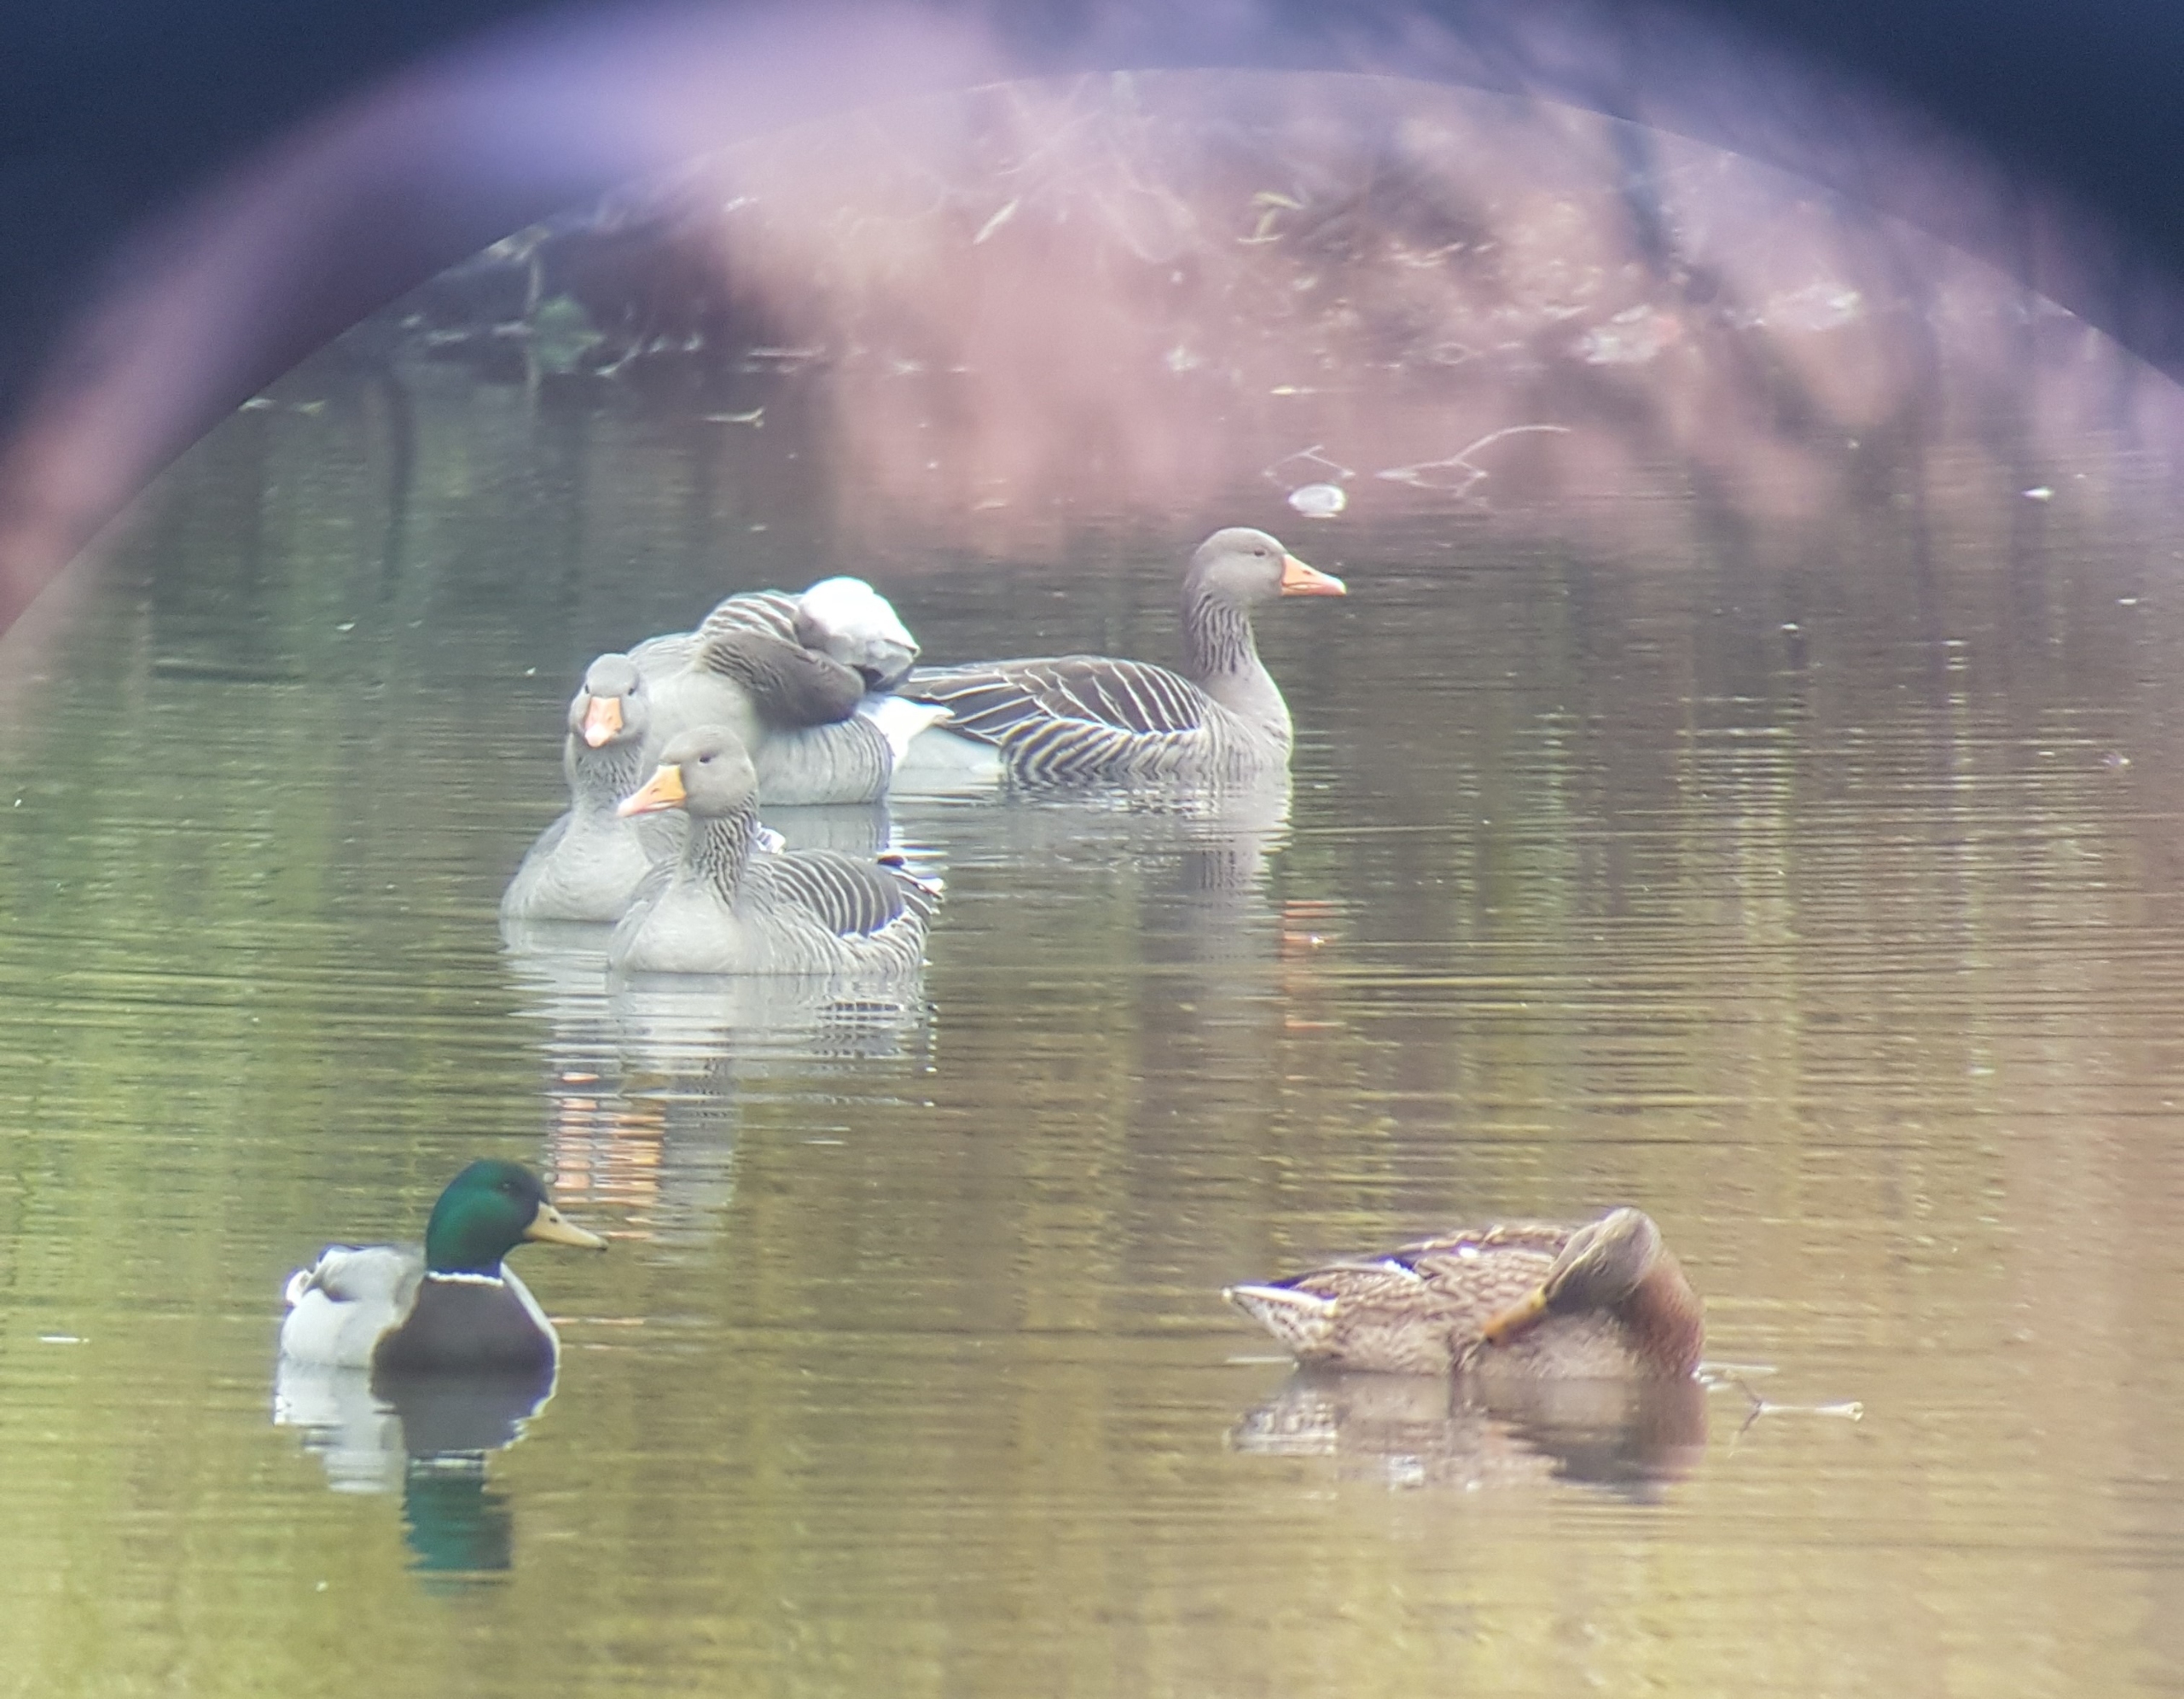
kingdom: Animalia
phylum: Chordata
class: Aves
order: Anseriformes
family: Anatidae
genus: Anser
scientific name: Anser anser
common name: Grågås
